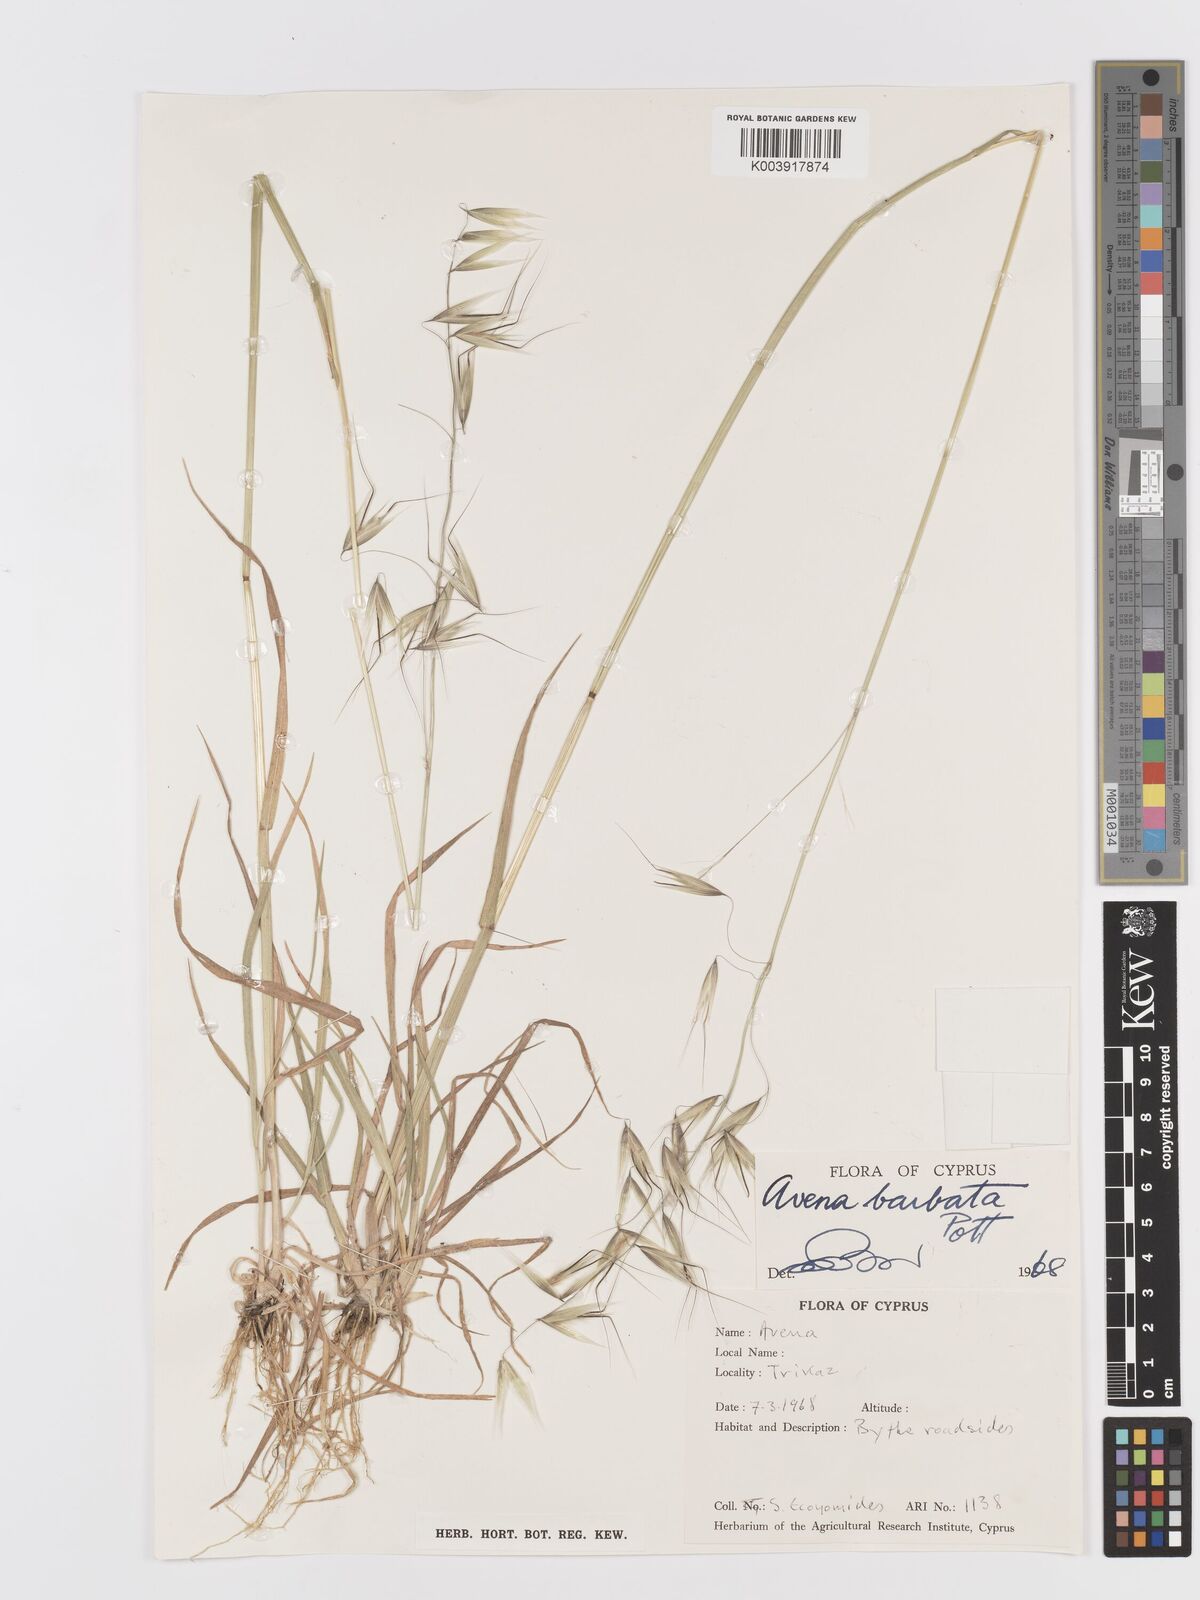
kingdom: Plantae
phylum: Tracheophyta
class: Liliopsida
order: Poales
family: Poaceae
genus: Avena
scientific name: Avena
